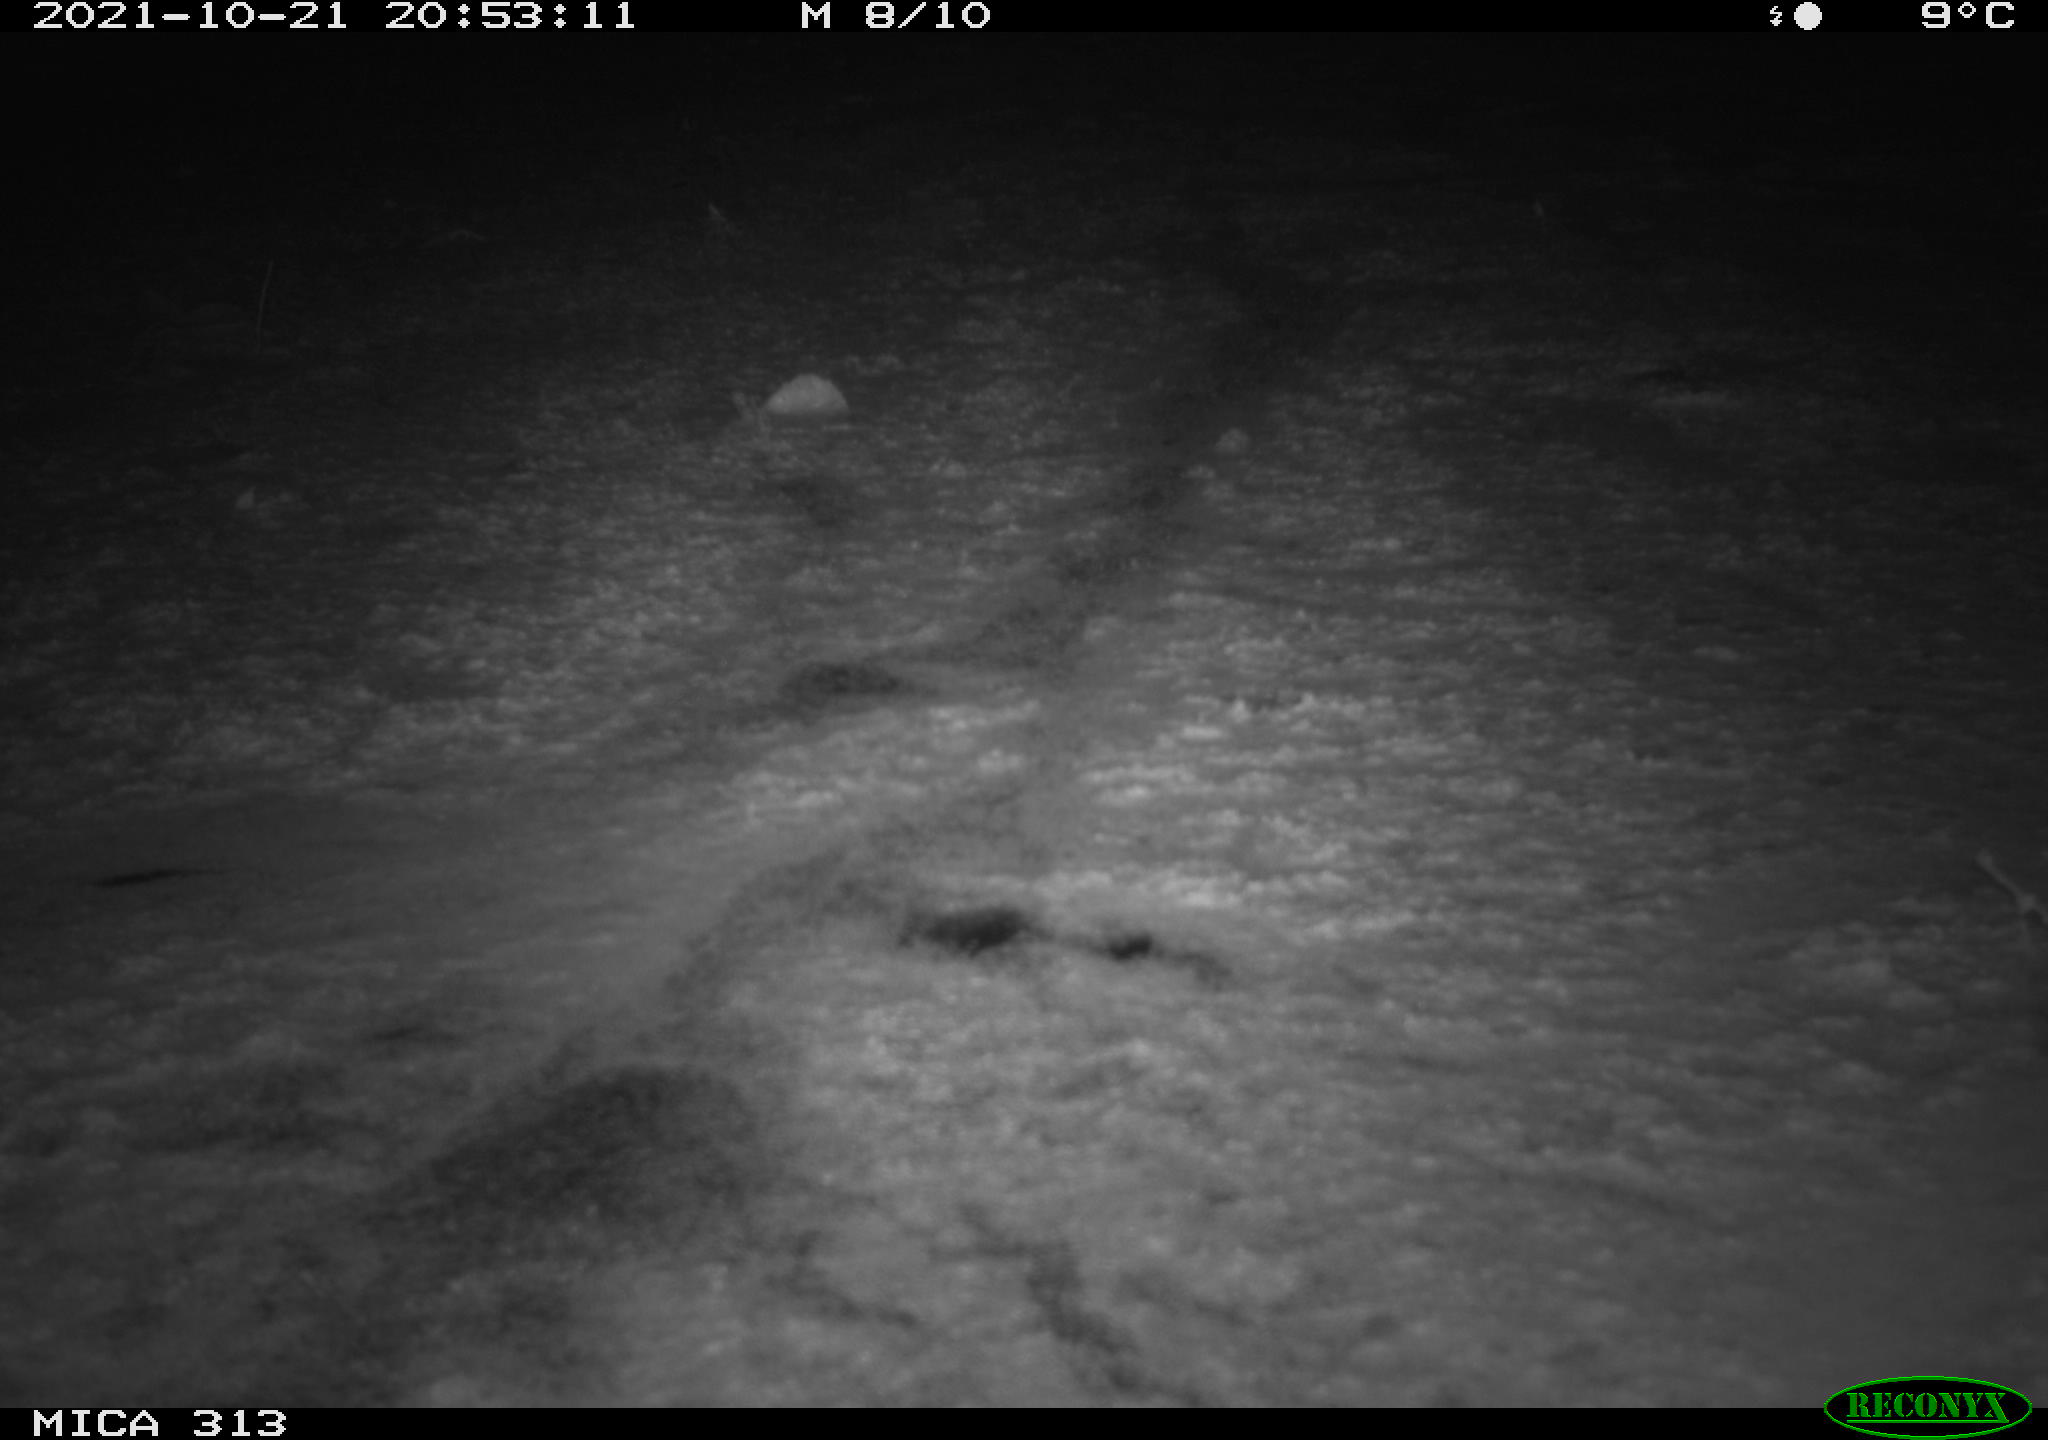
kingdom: Animalia
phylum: Chordata
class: Aves
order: Gruiformes
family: Rallidae
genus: Fulica
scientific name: Fulica atra
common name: Eurasian coot
